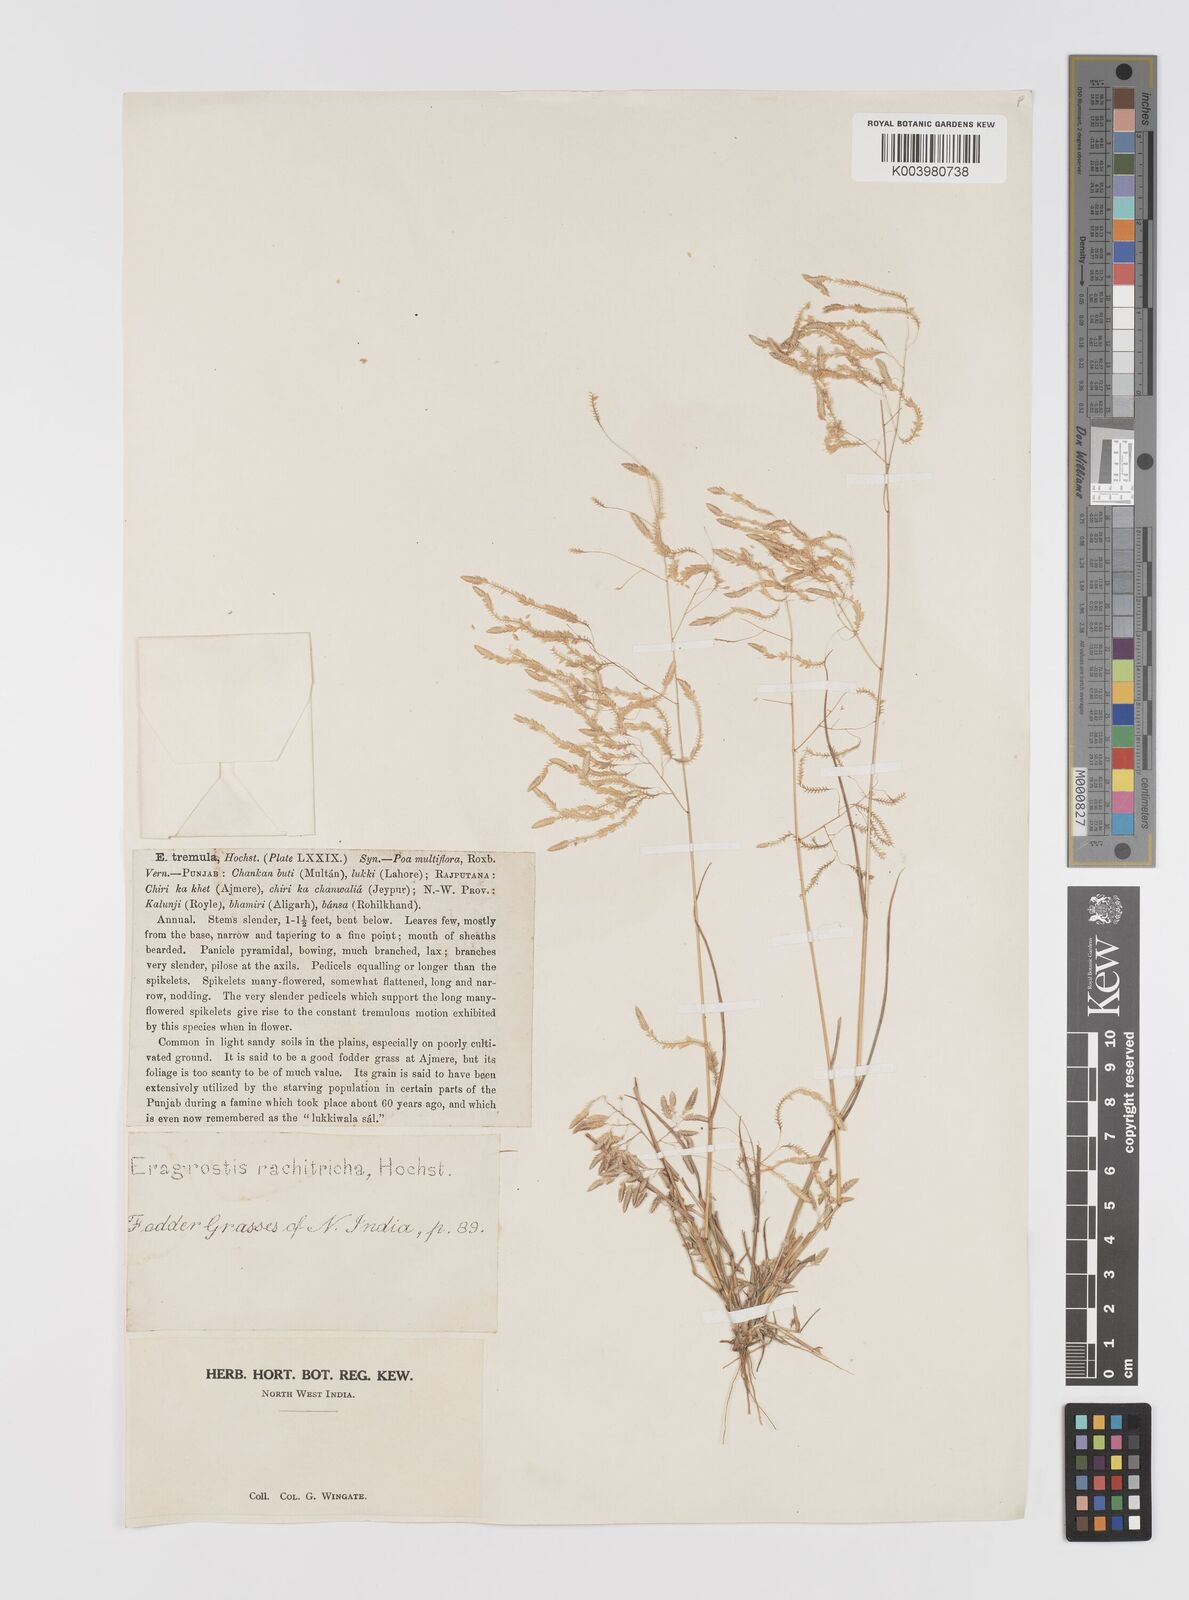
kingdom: Plantae
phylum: Tracheophyta
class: Liliopsida
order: Poales
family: Poaceae
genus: Eragrostis
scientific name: Eragrostis tremula
